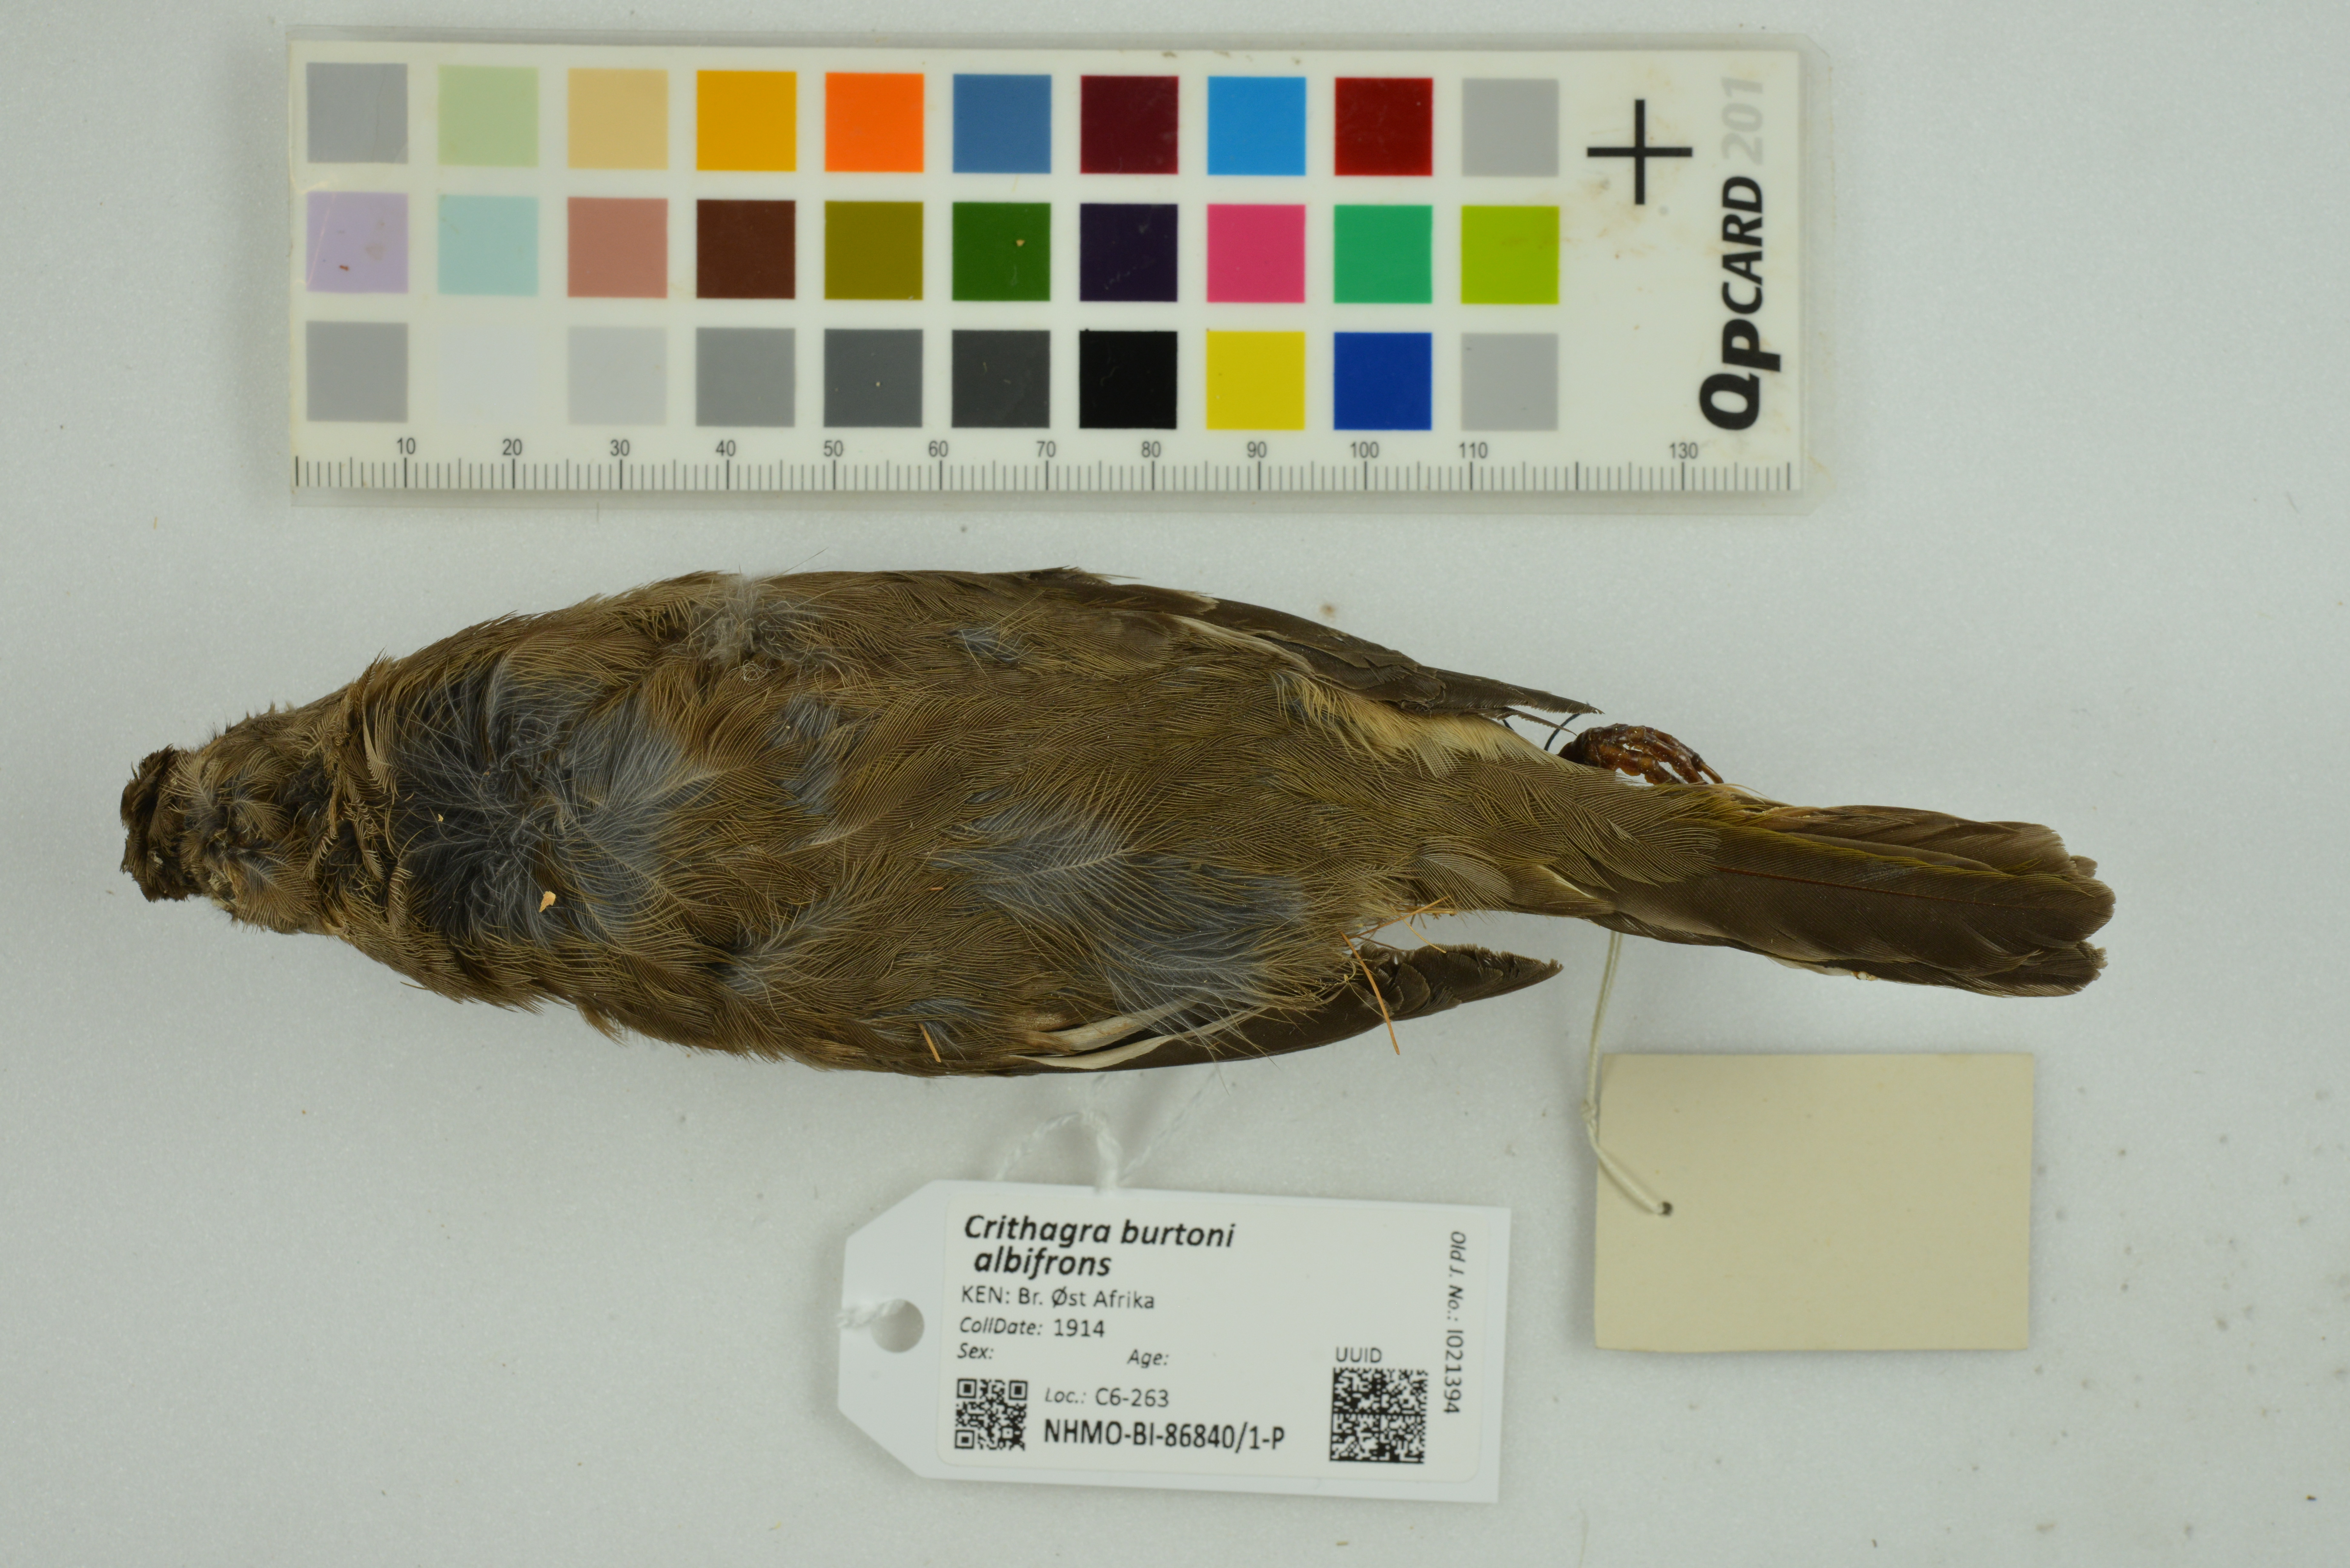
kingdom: Animalia
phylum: Chordata
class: Aves
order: Passeriformes
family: Fringillidae
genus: Crithagra
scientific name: Crithagra burtoni
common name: Thick-billed seedeater
